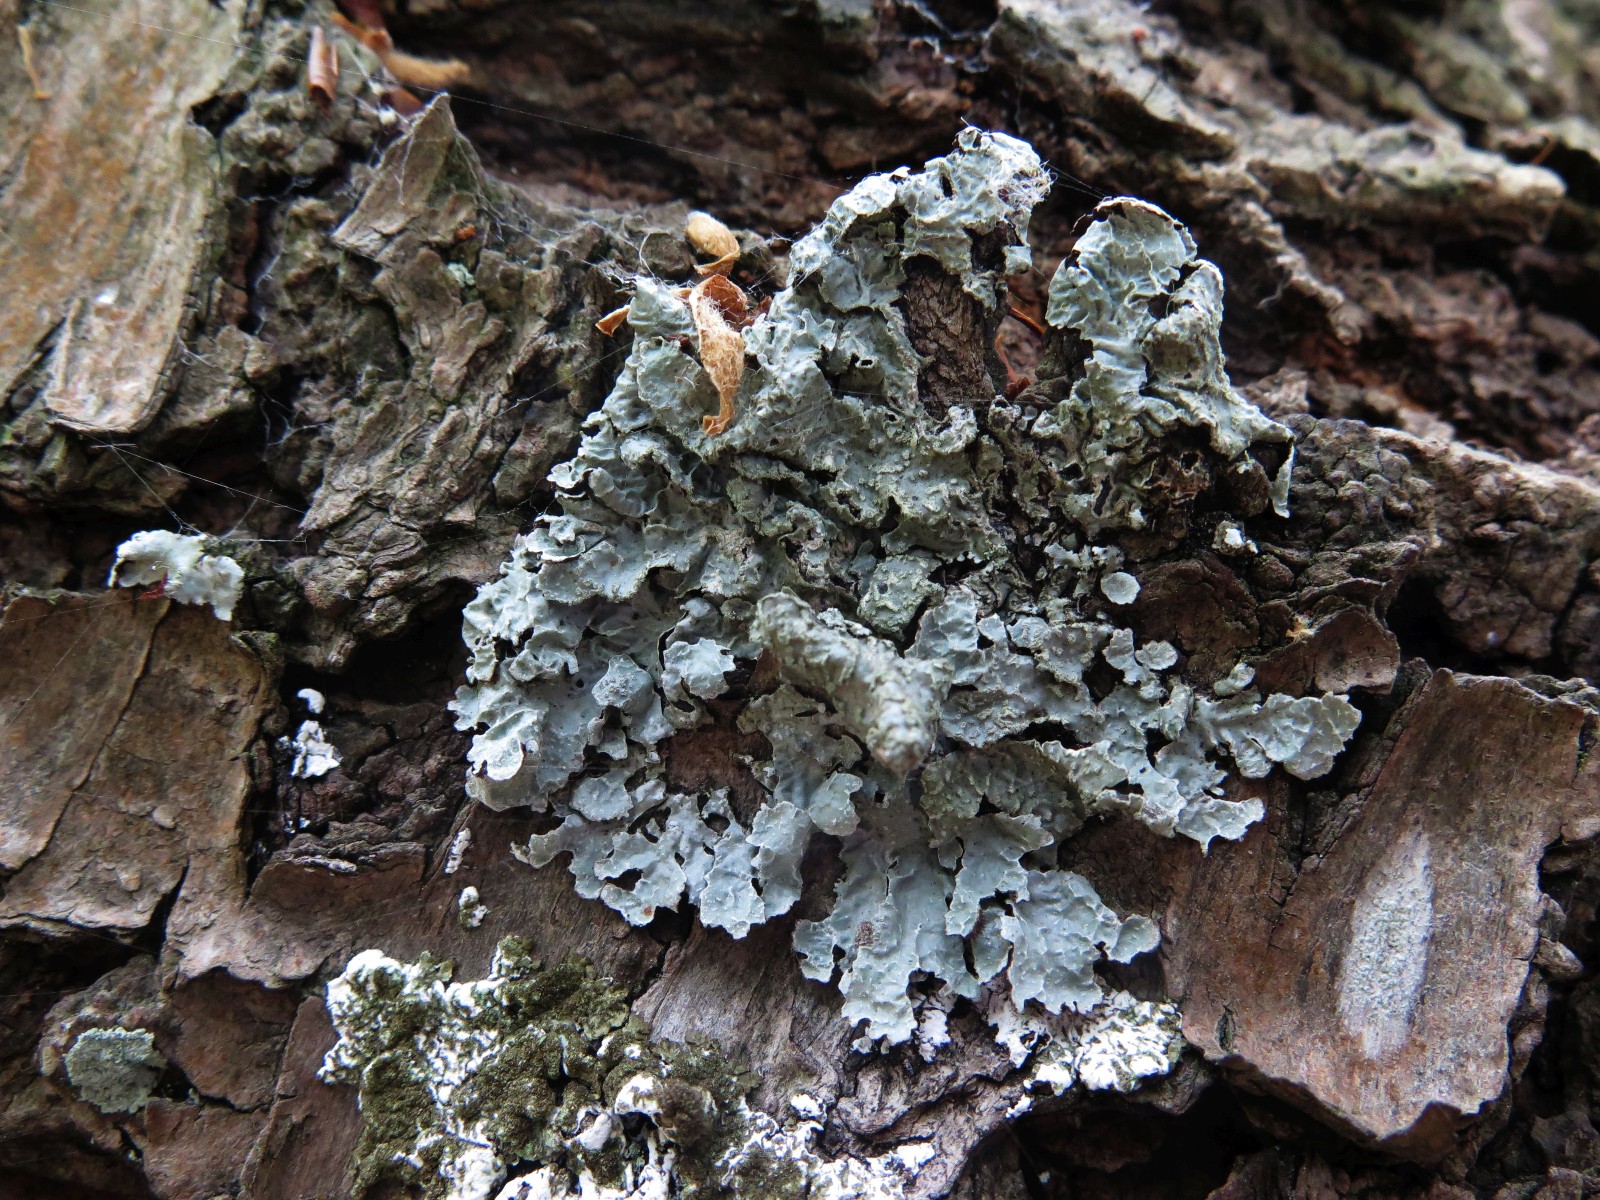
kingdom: Fungi
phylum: Ascomycota
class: Lecanoromycetes
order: Lecanorales
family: Parmeliaceae
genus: Parmelia
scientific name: Parmelia sulcata
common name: rynket skållav
